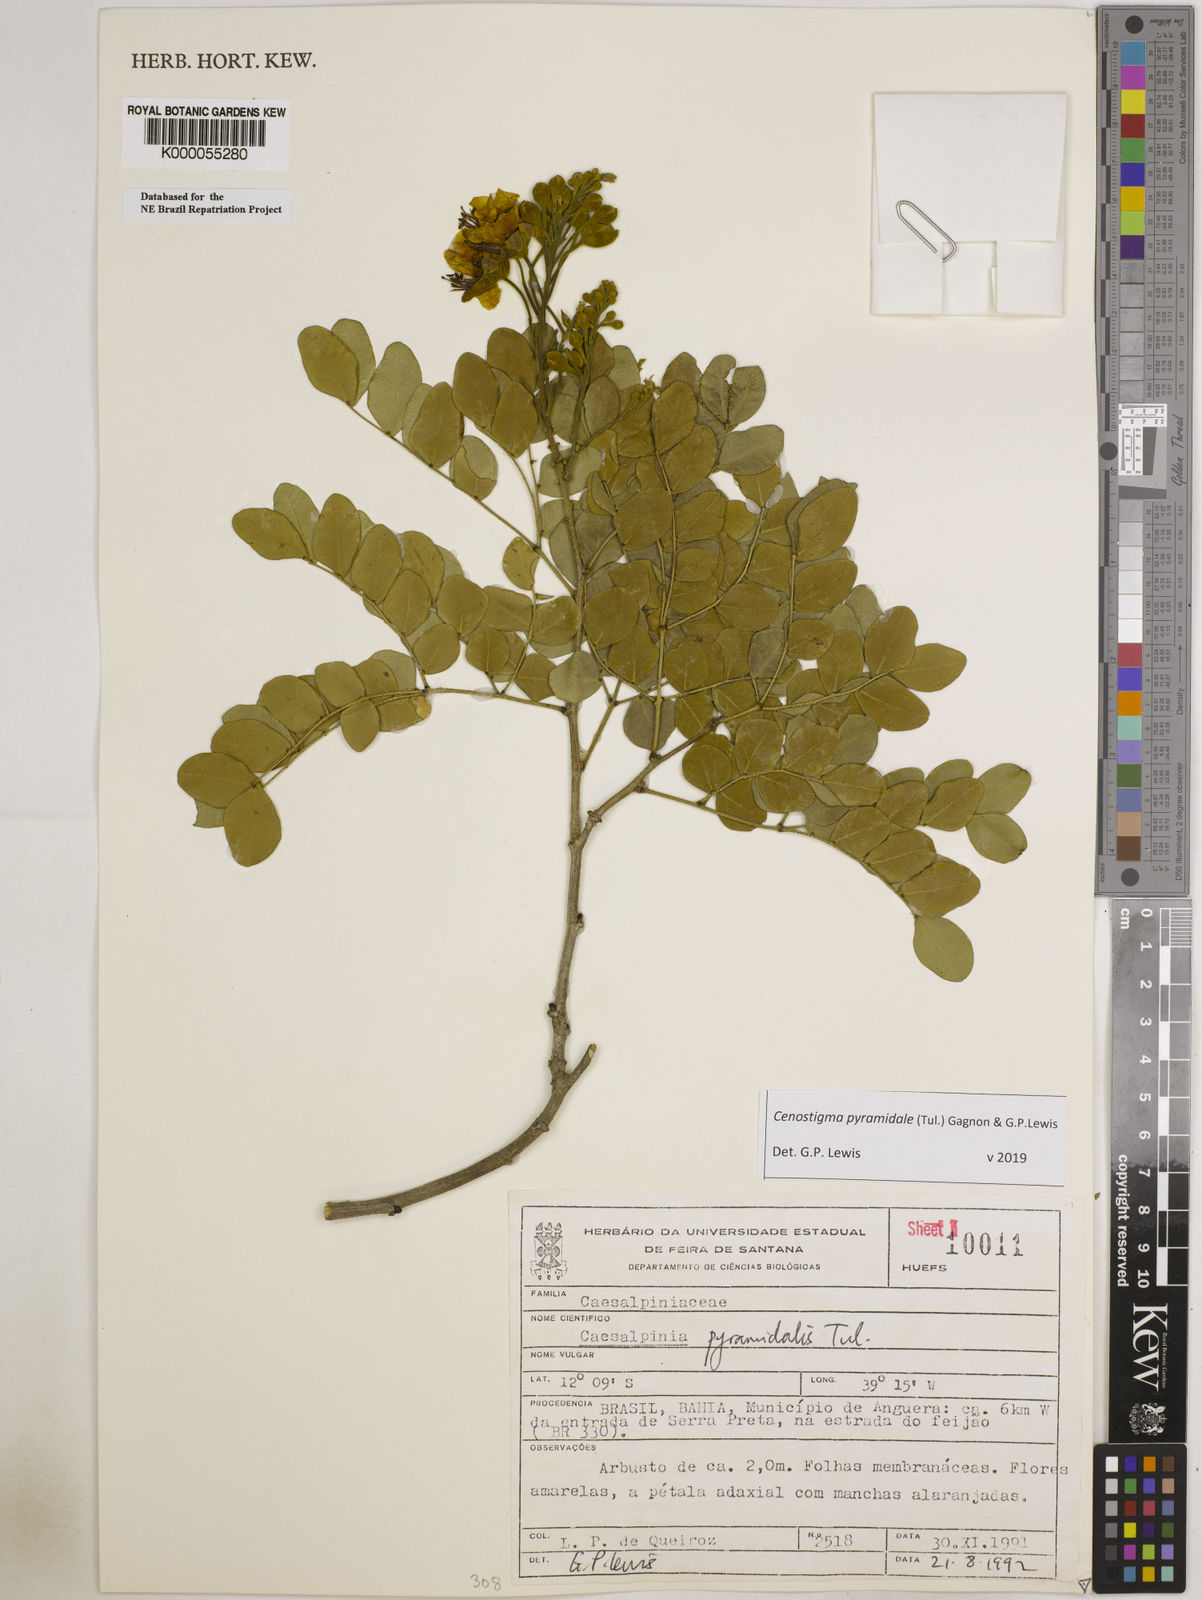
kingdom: Plantae
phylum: Tracheophyta
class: Magnoliopsida
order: Fabales
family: Fabaceae
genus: Cenostigma
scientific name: Cenostigma pyramidale
